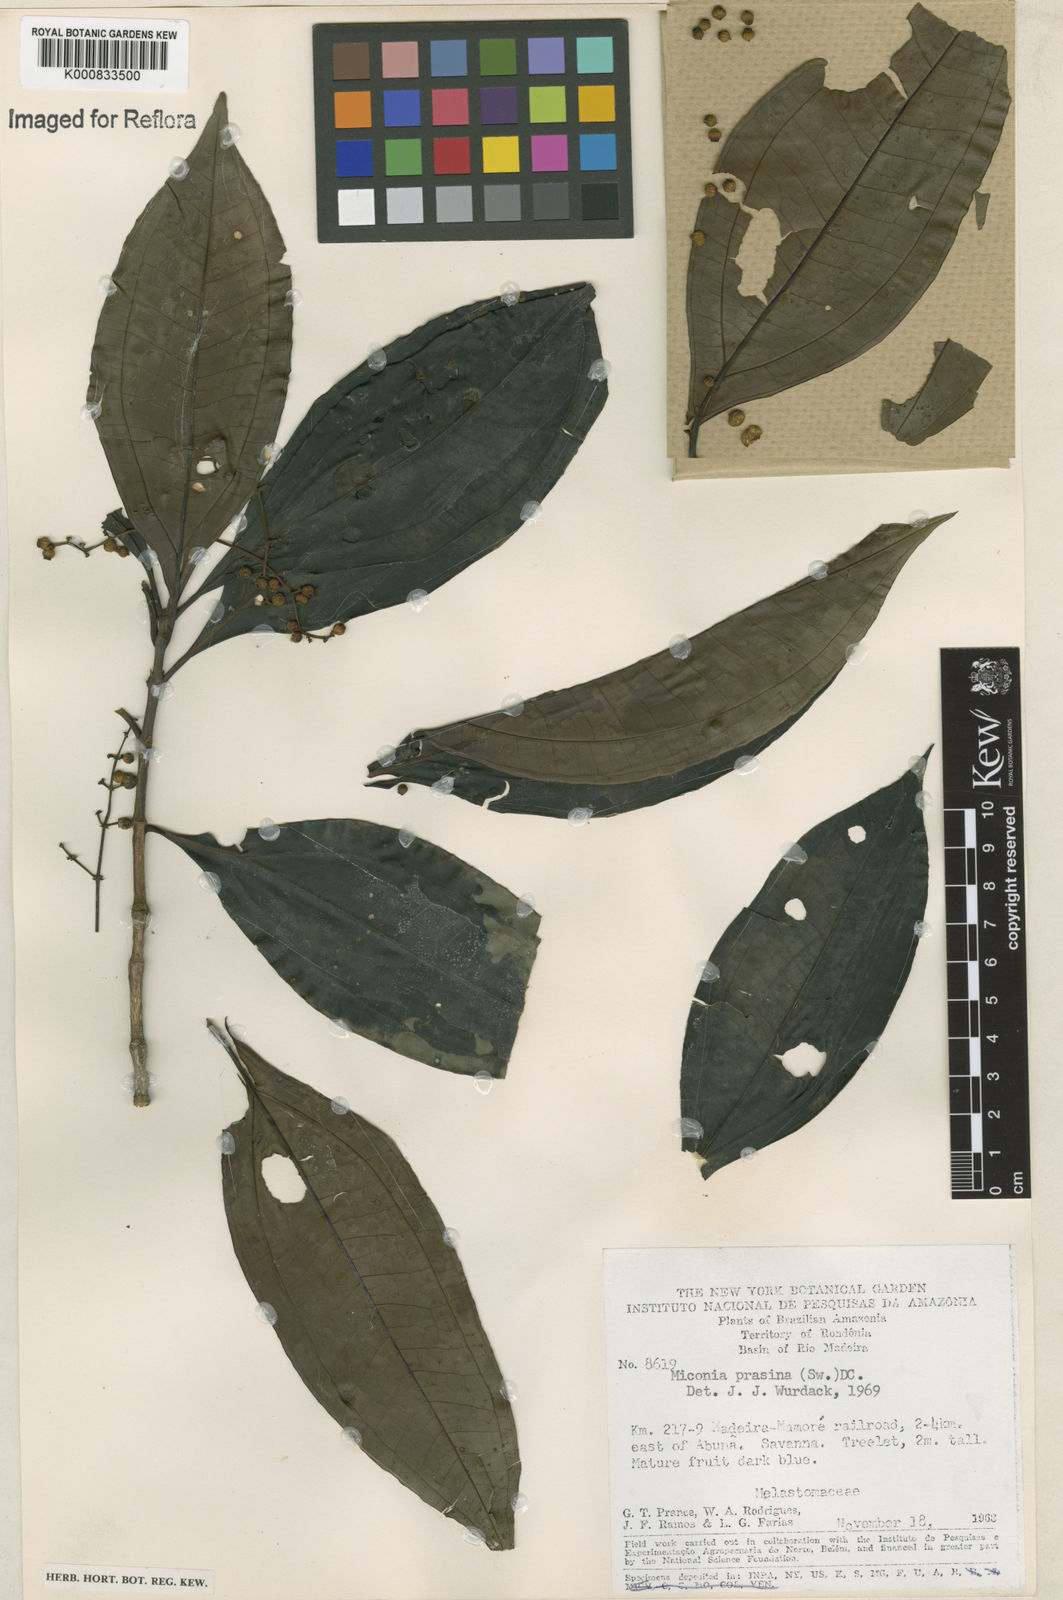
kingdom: Plantae
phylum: Tracheophyta
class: Magnoliopsida
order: Myrtales
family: Melastomataceae
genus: Miconia
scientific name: Miconia prasina
